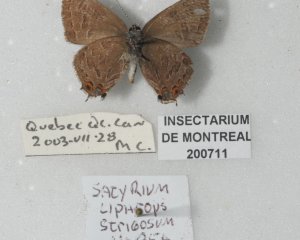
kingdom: Animalia
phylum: Arthropoda
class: Insecta
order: Lepidoptera
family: Lycaenidae
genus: Satyrium
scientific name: Satyrium liparops
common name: Striped Hairstreak
